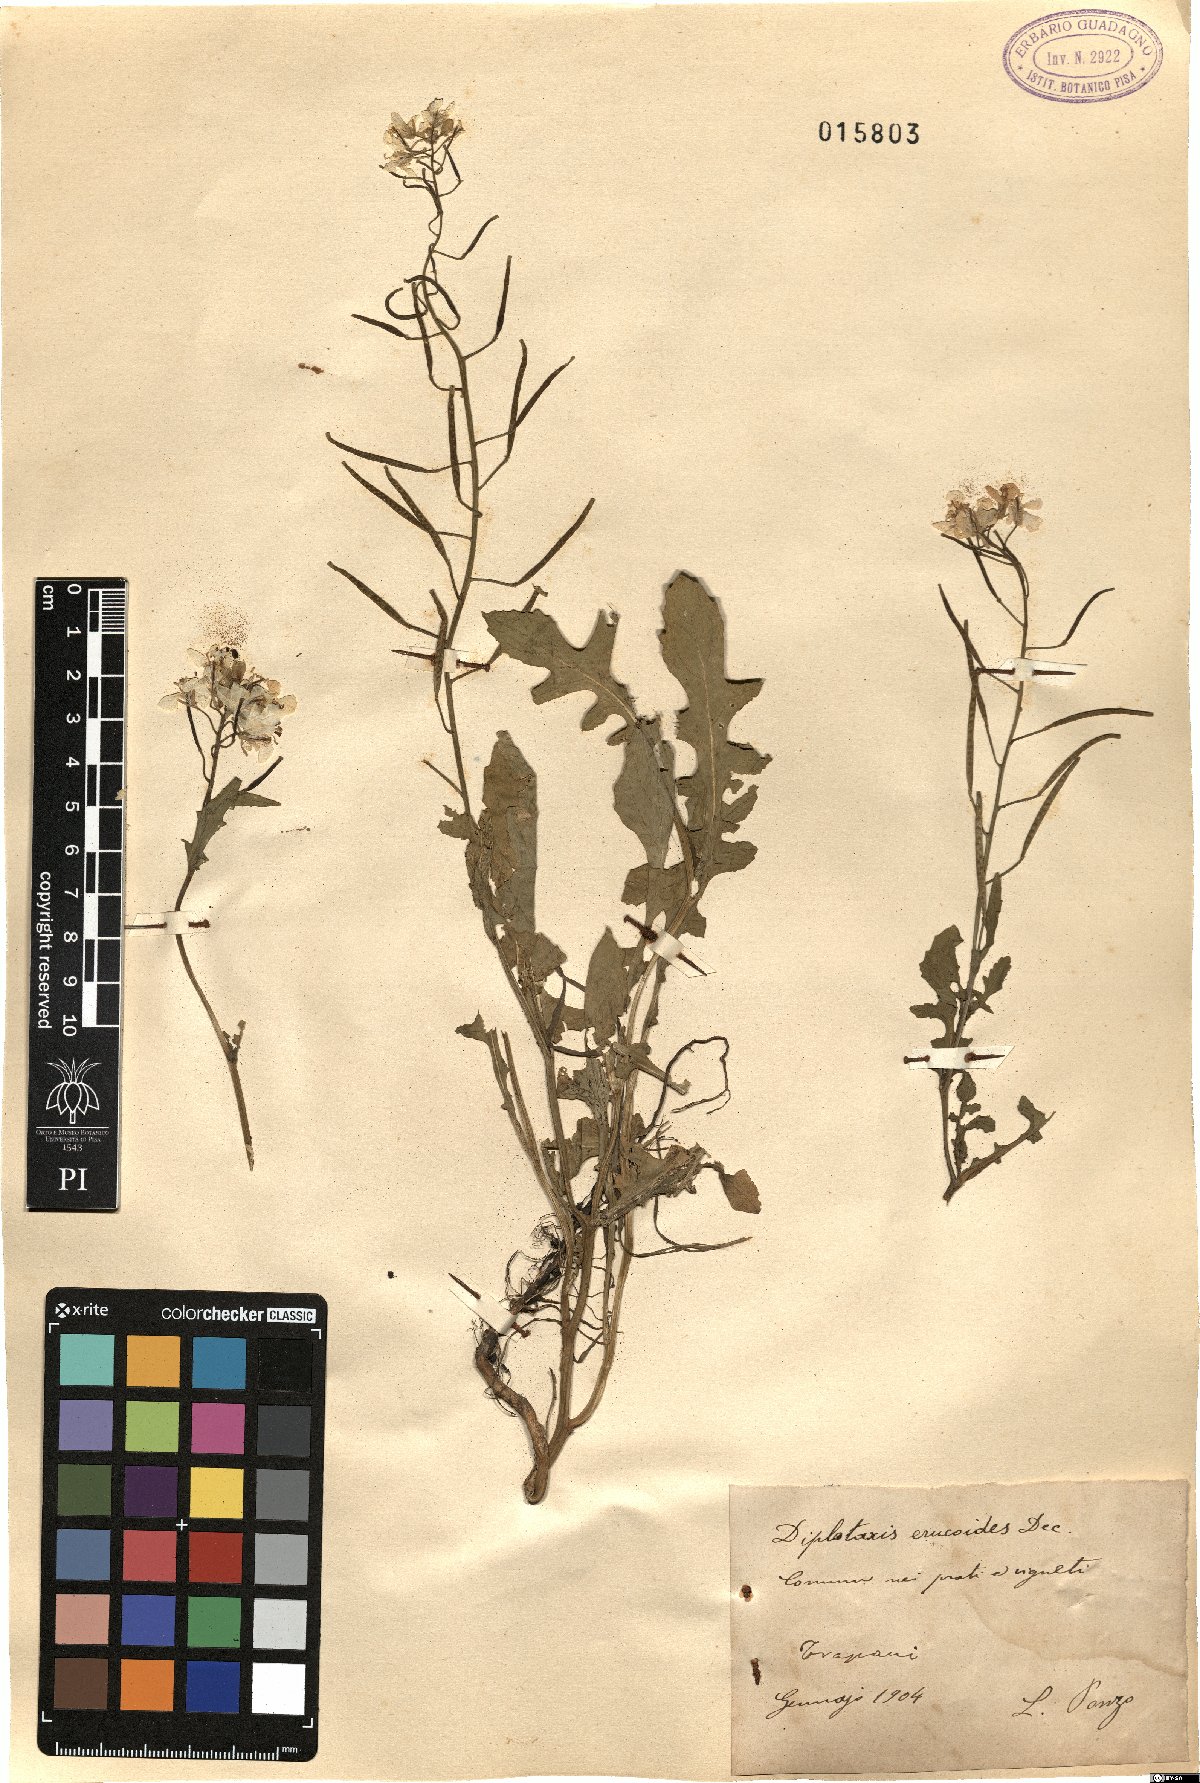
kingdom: Plantae
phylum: Tracheophyta
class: Magnoliopsida
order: Brassicales
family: Brassicaceae
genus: Diplotaxis
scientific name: Diplotaxis erucoides
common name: White rocket
